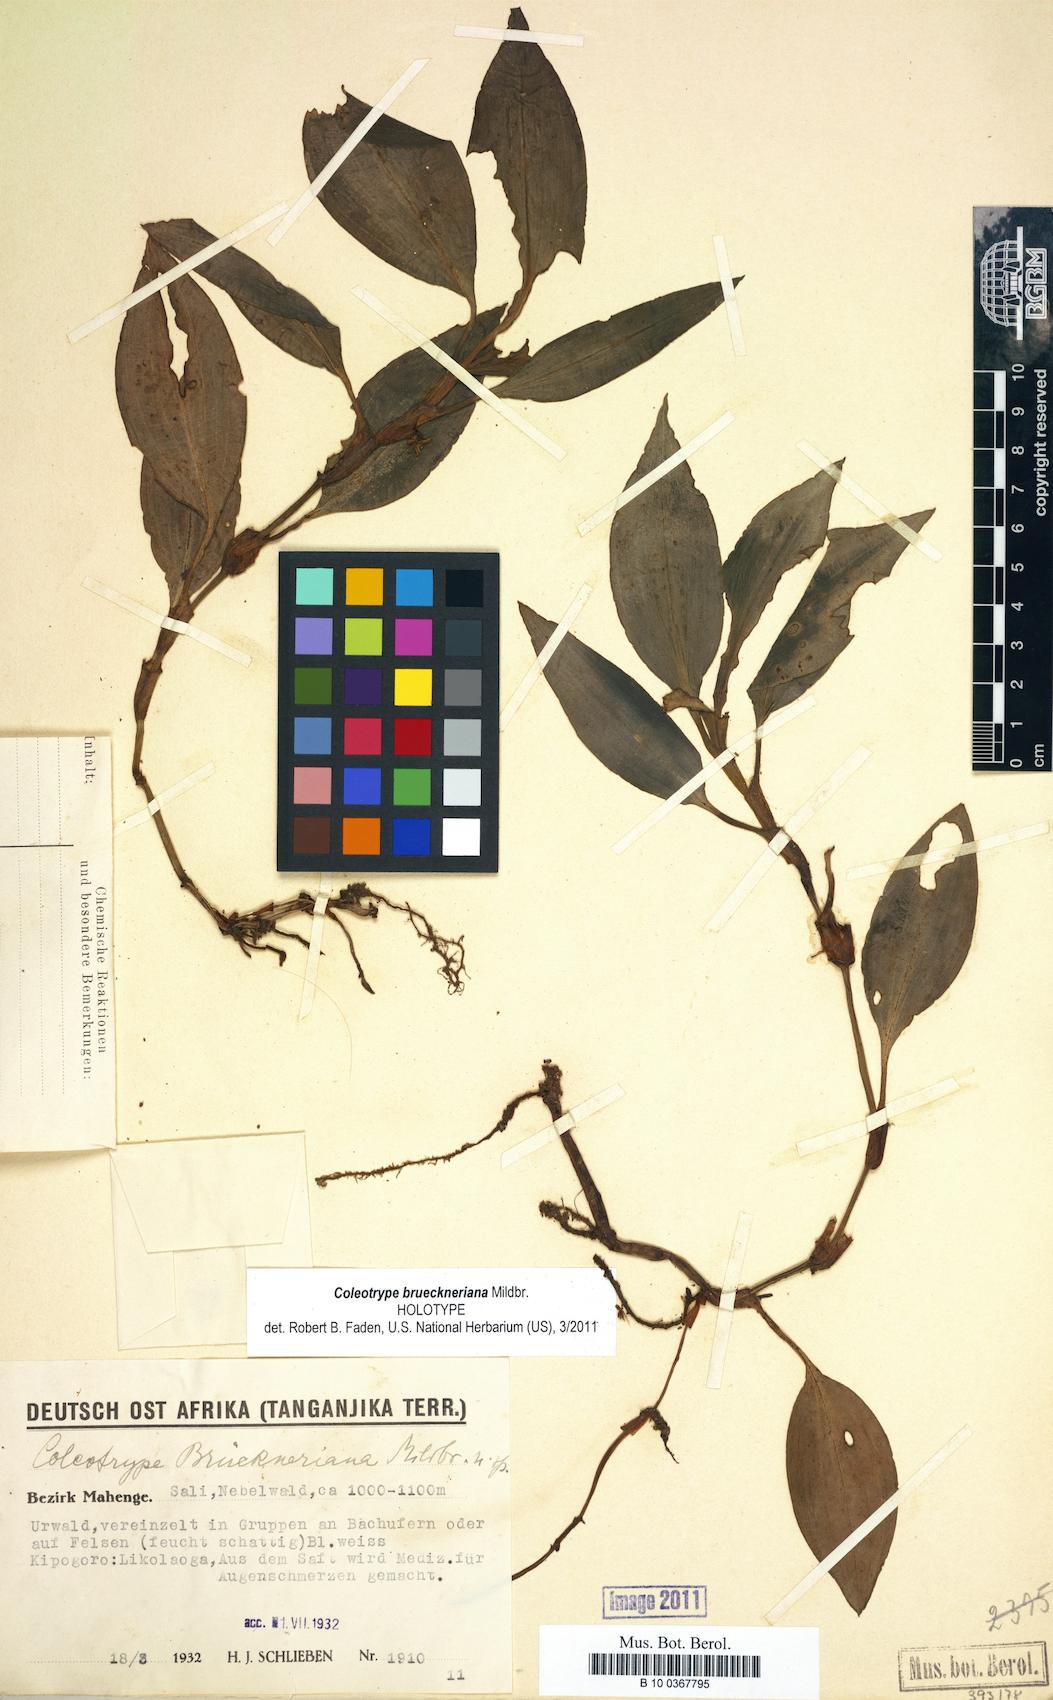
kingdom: Plantae
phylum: Tracheophyta
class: Liliopsida
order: Commelinales
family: Commelinaceae
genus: Coleotrype
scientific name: Coleotrype brueckneriana
